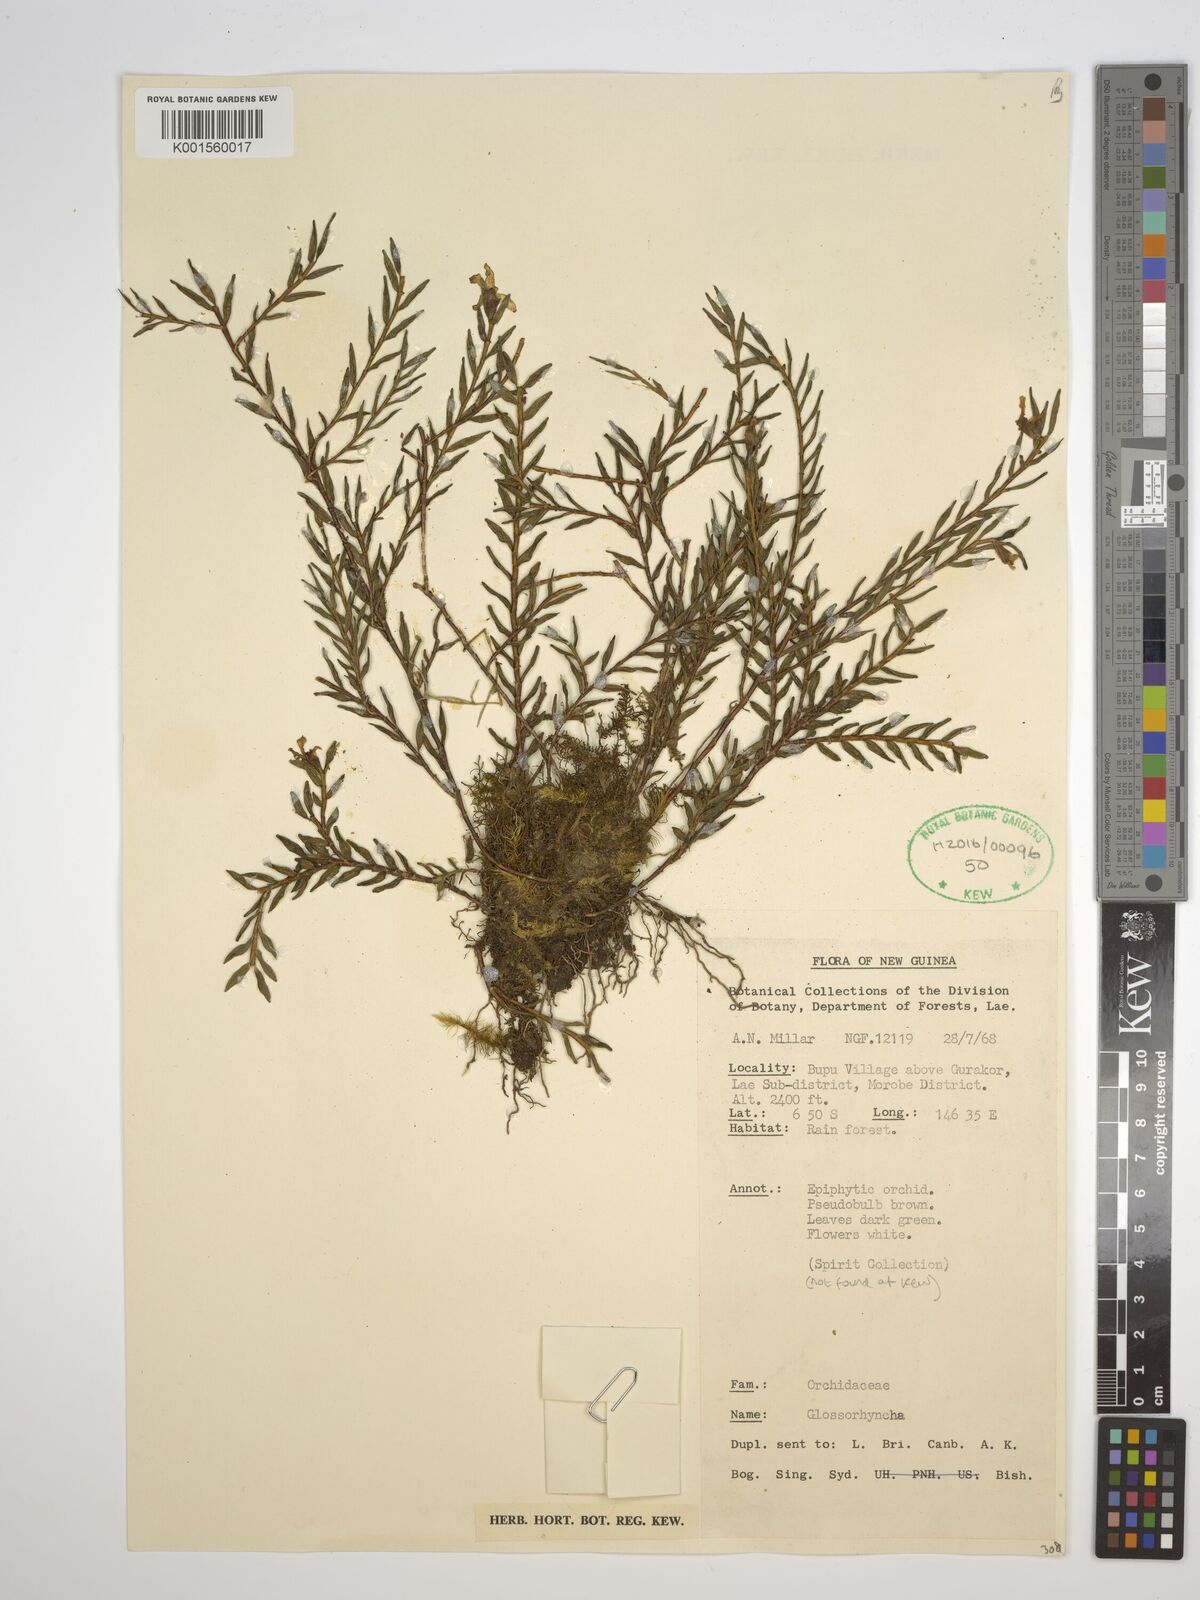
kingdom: Plantae
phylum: Tracheophyta
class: Liliopsida
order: Asparagales
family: Orchidaceae
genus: Glomera
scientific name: Glomera
